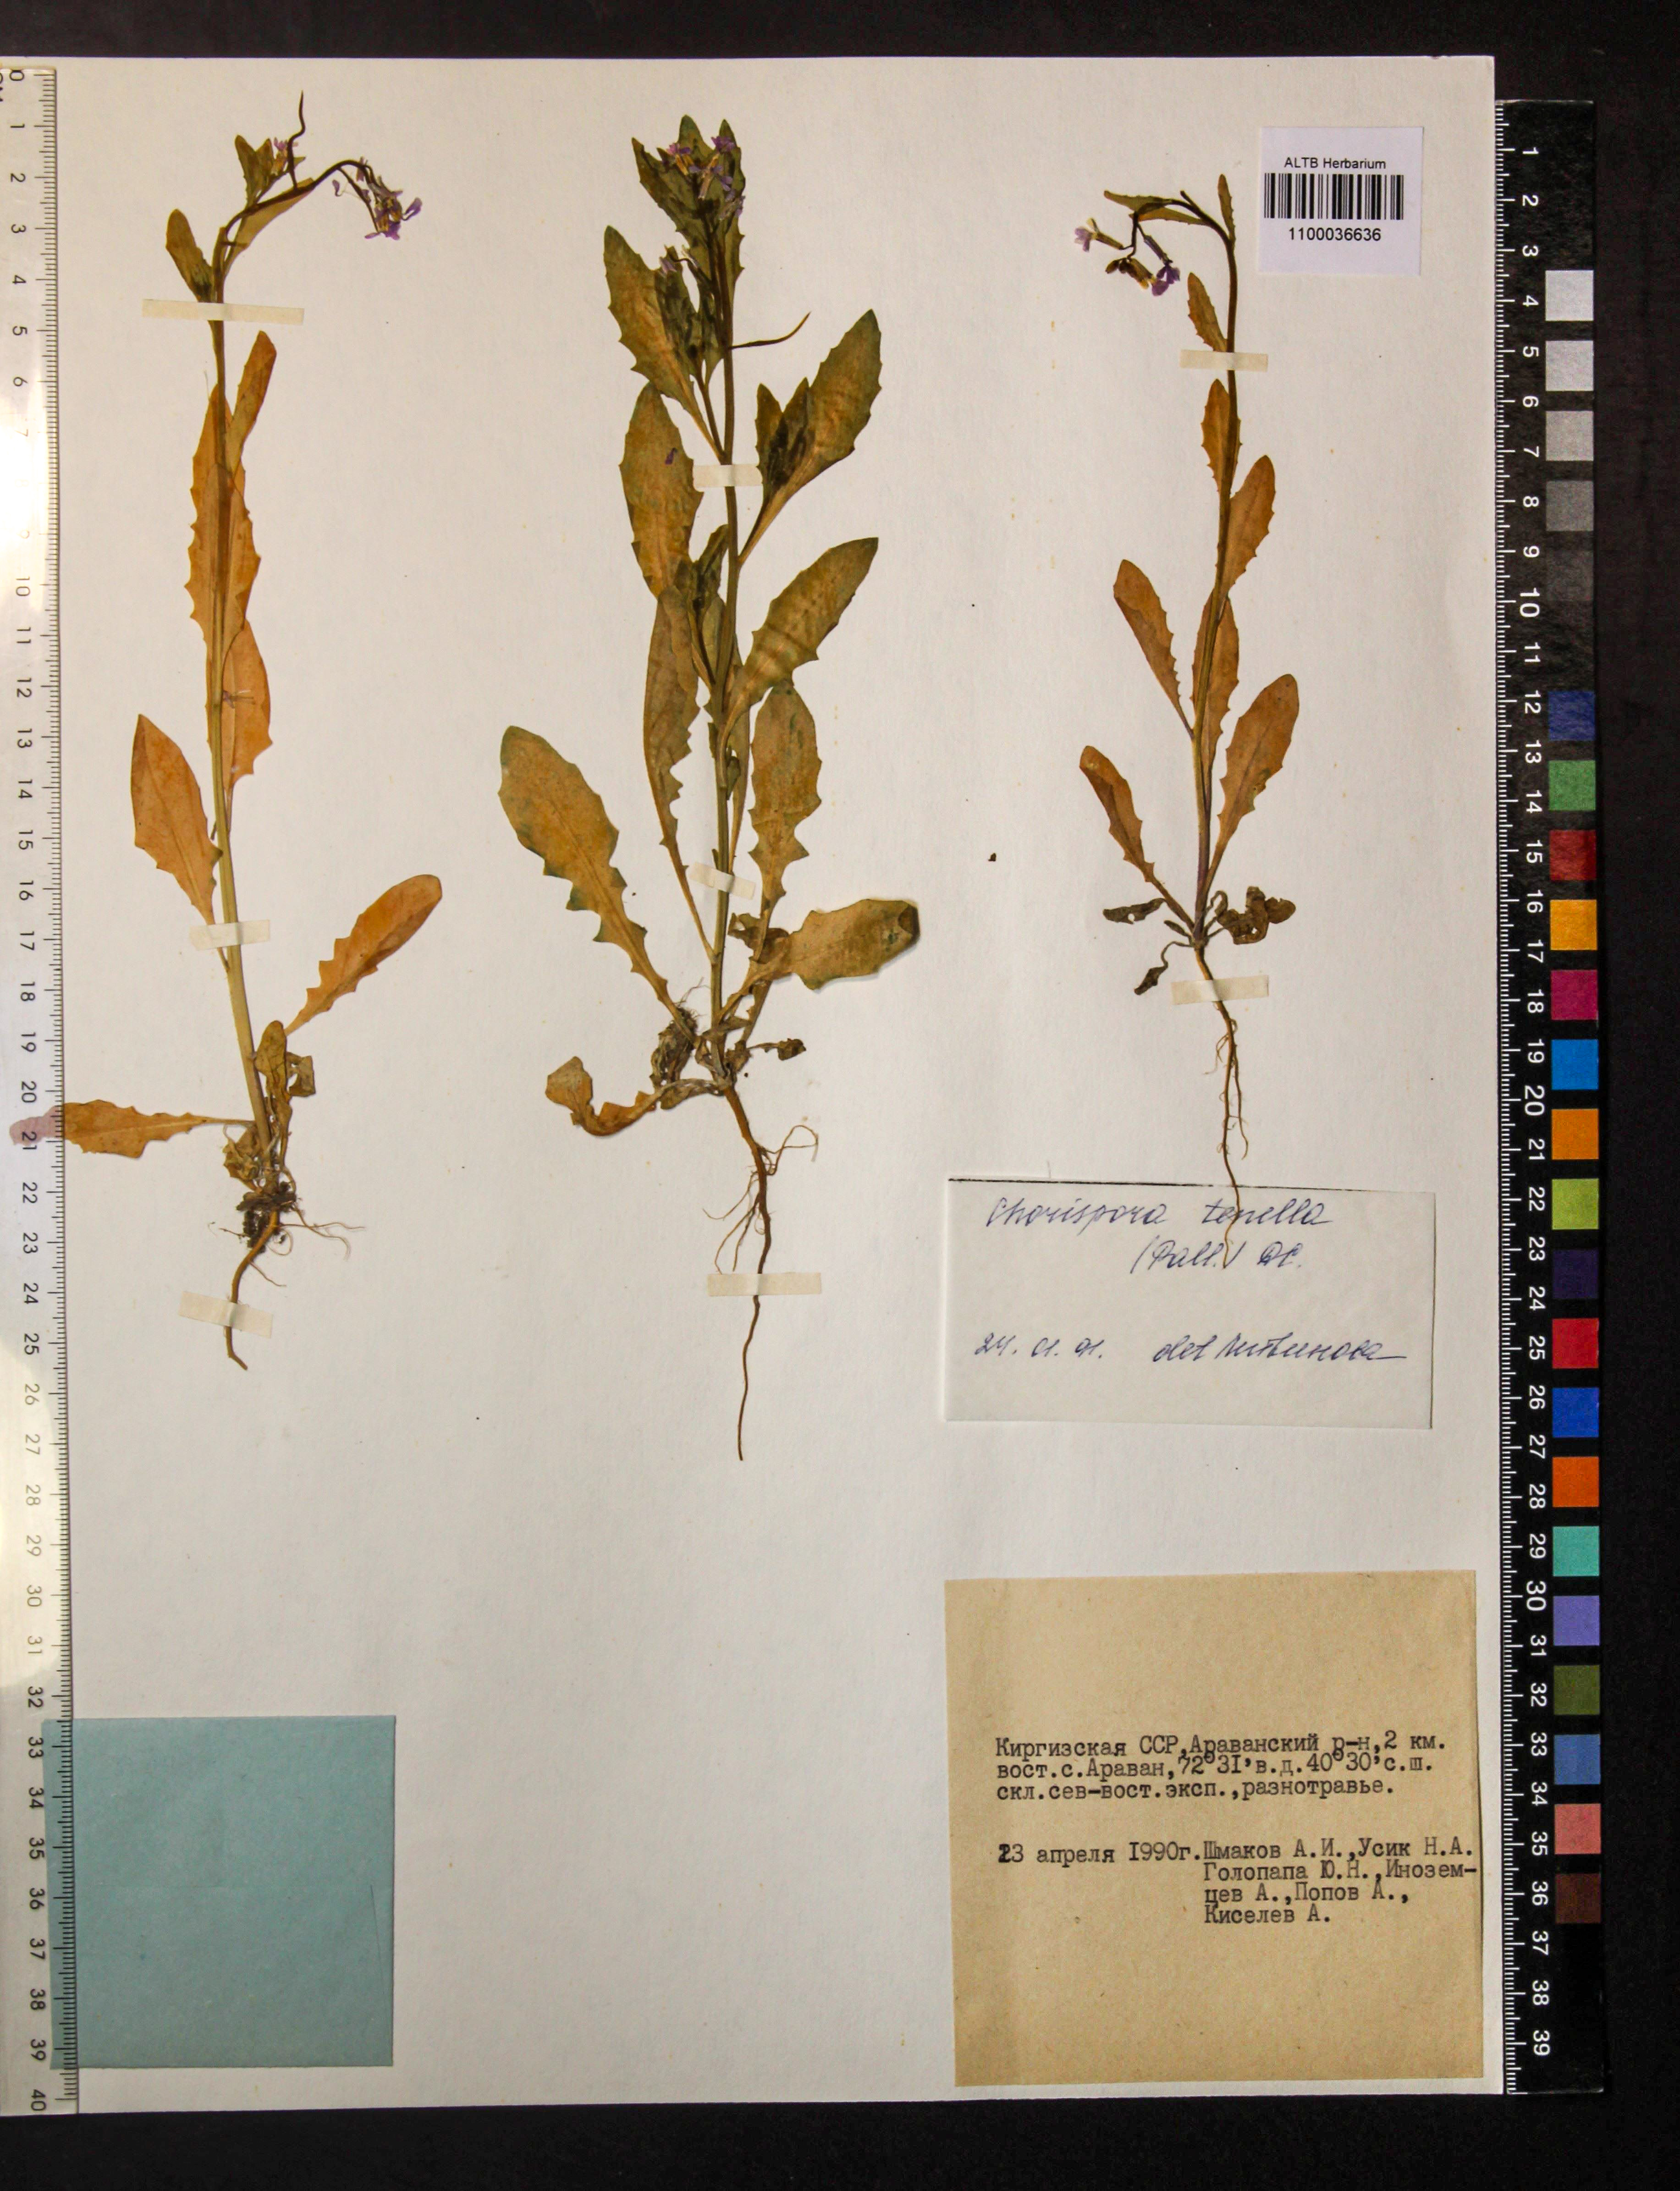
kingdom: Plantae
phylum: Tracheophyta
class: Magnoliopsida
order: Brassicales
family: Brassicaceae
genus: Chorispora
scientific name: Chorispora tenella
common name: Crossflower
